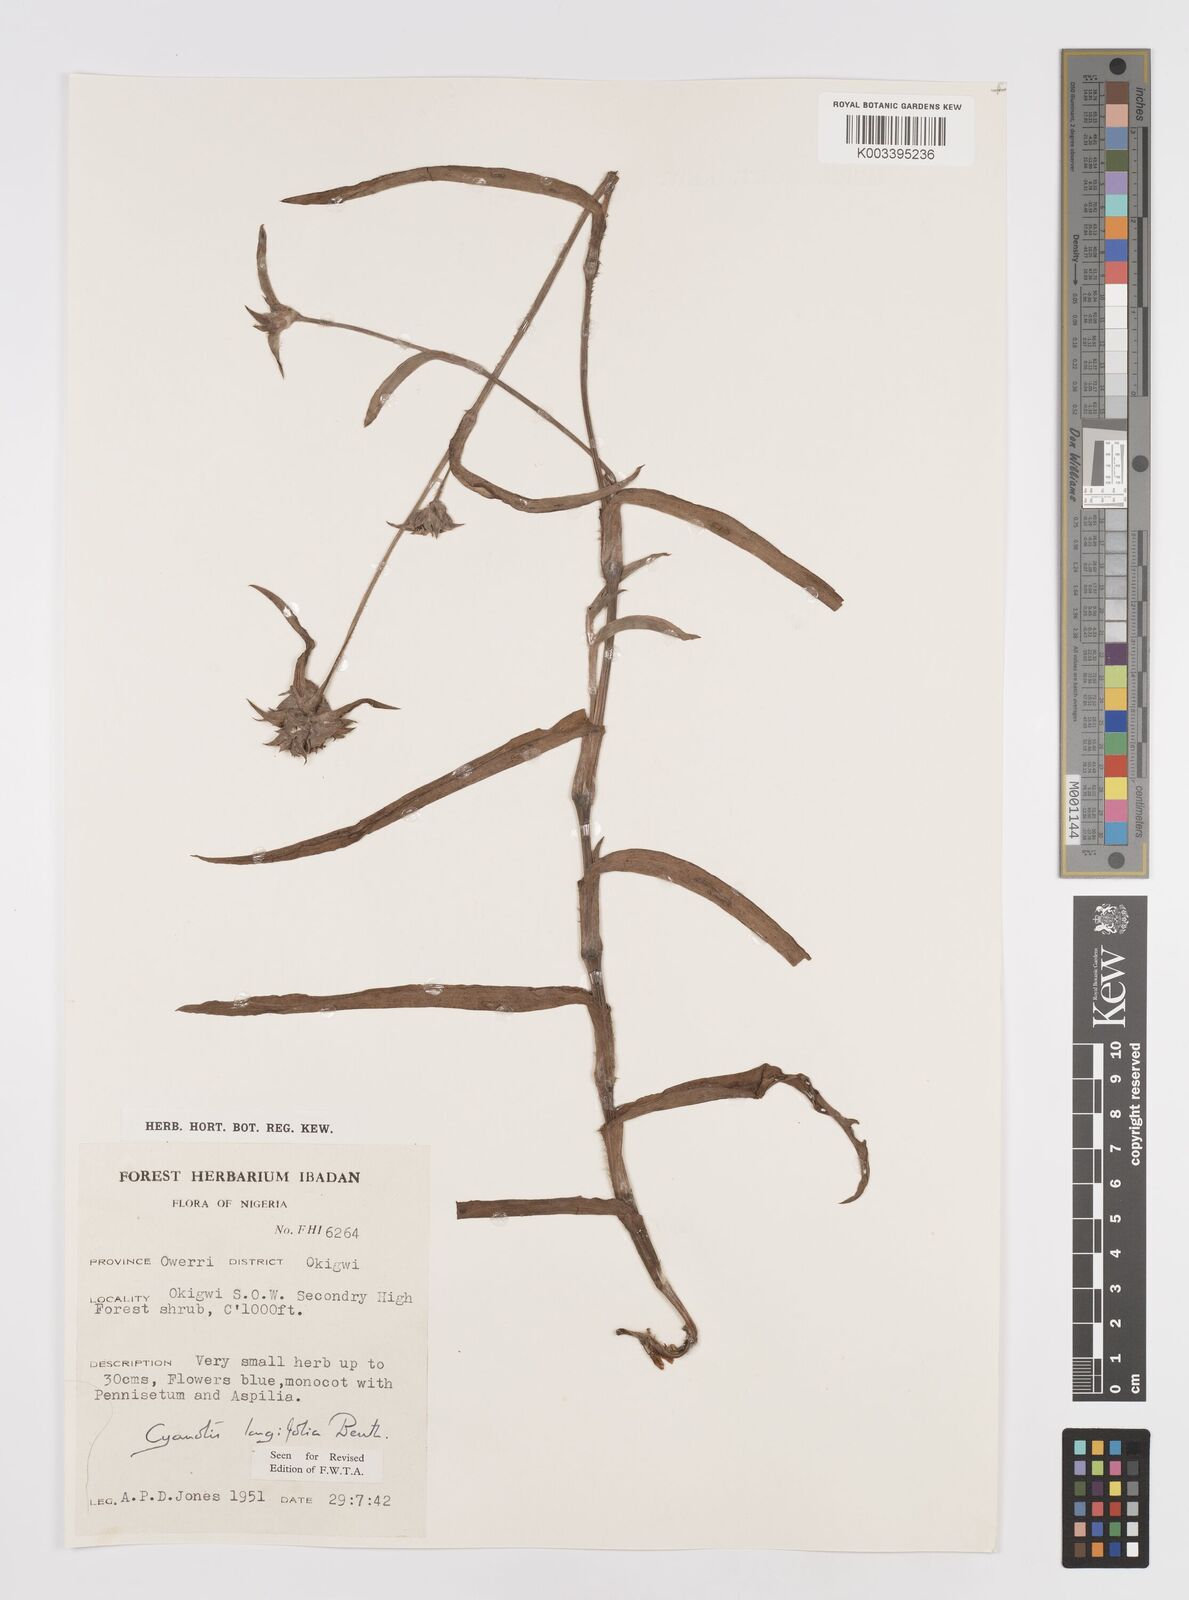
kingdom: Plantae
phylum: Tracheophyta
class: Liliopsida
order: Commelinales
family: Commelinaceae
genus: Cyanotis
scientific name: Cyanotis
